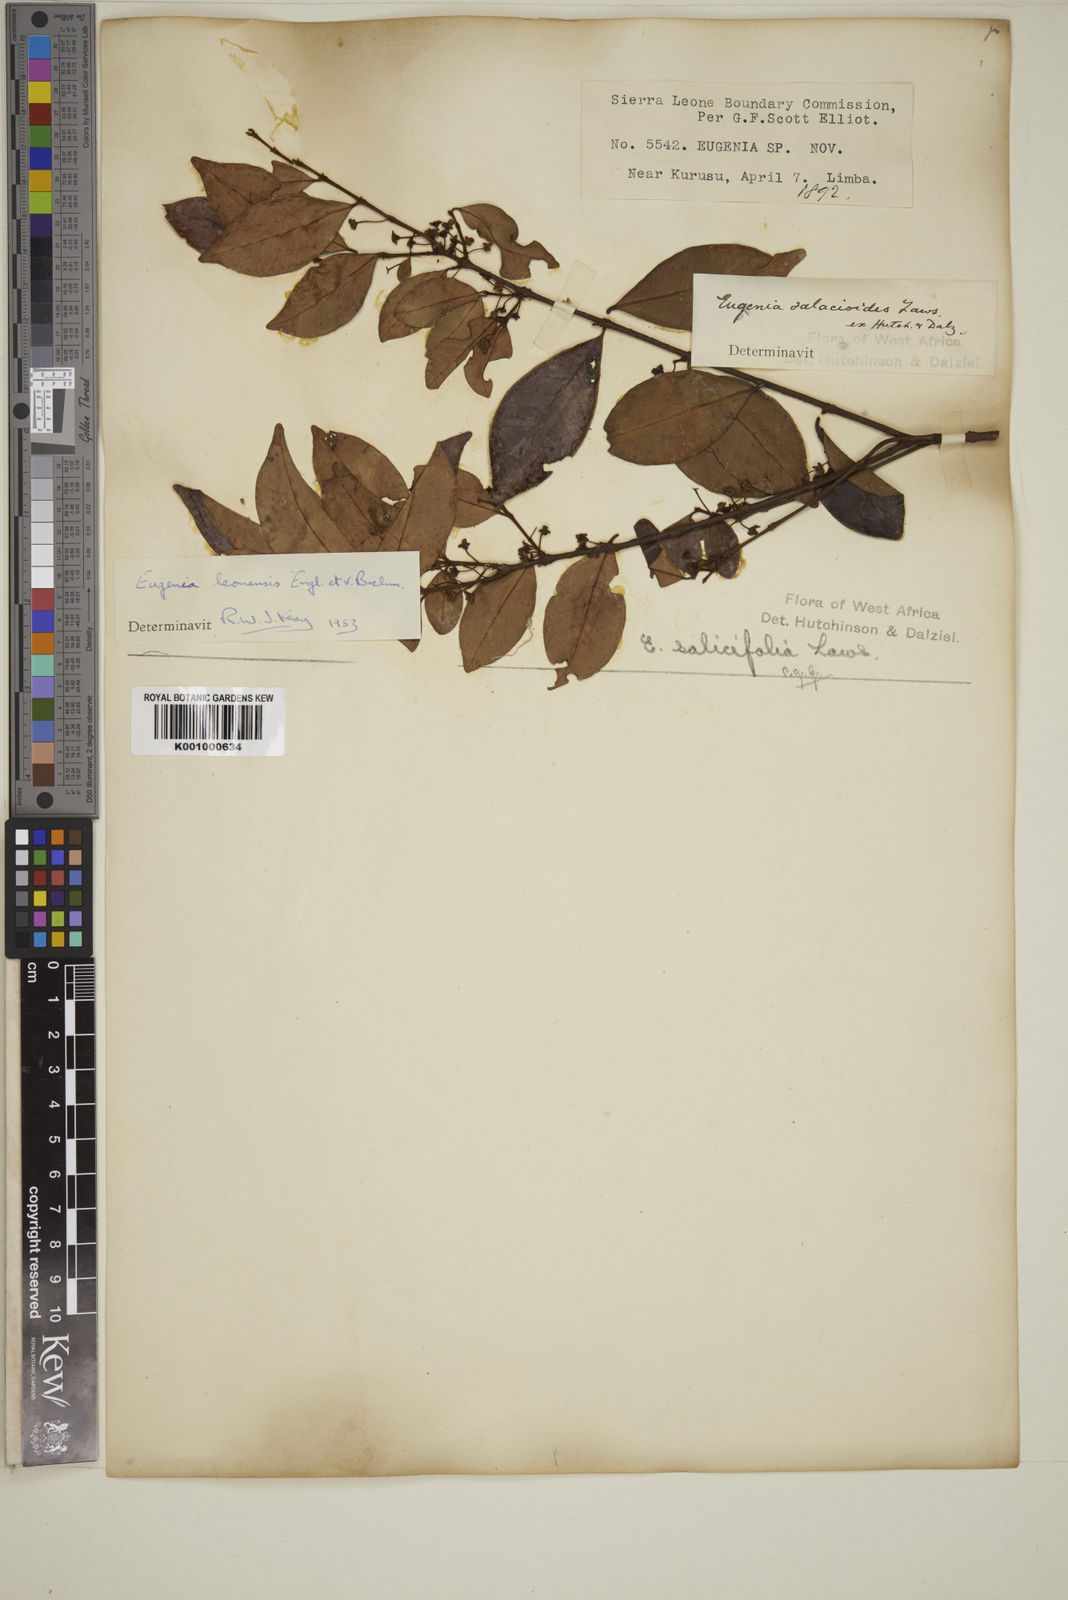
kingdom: Plantae
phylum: Tracheophyta
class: Magnoliopsida
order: Myrtales
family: Myrtaceae
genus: Eugenia
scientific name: Eugenia leonensis
